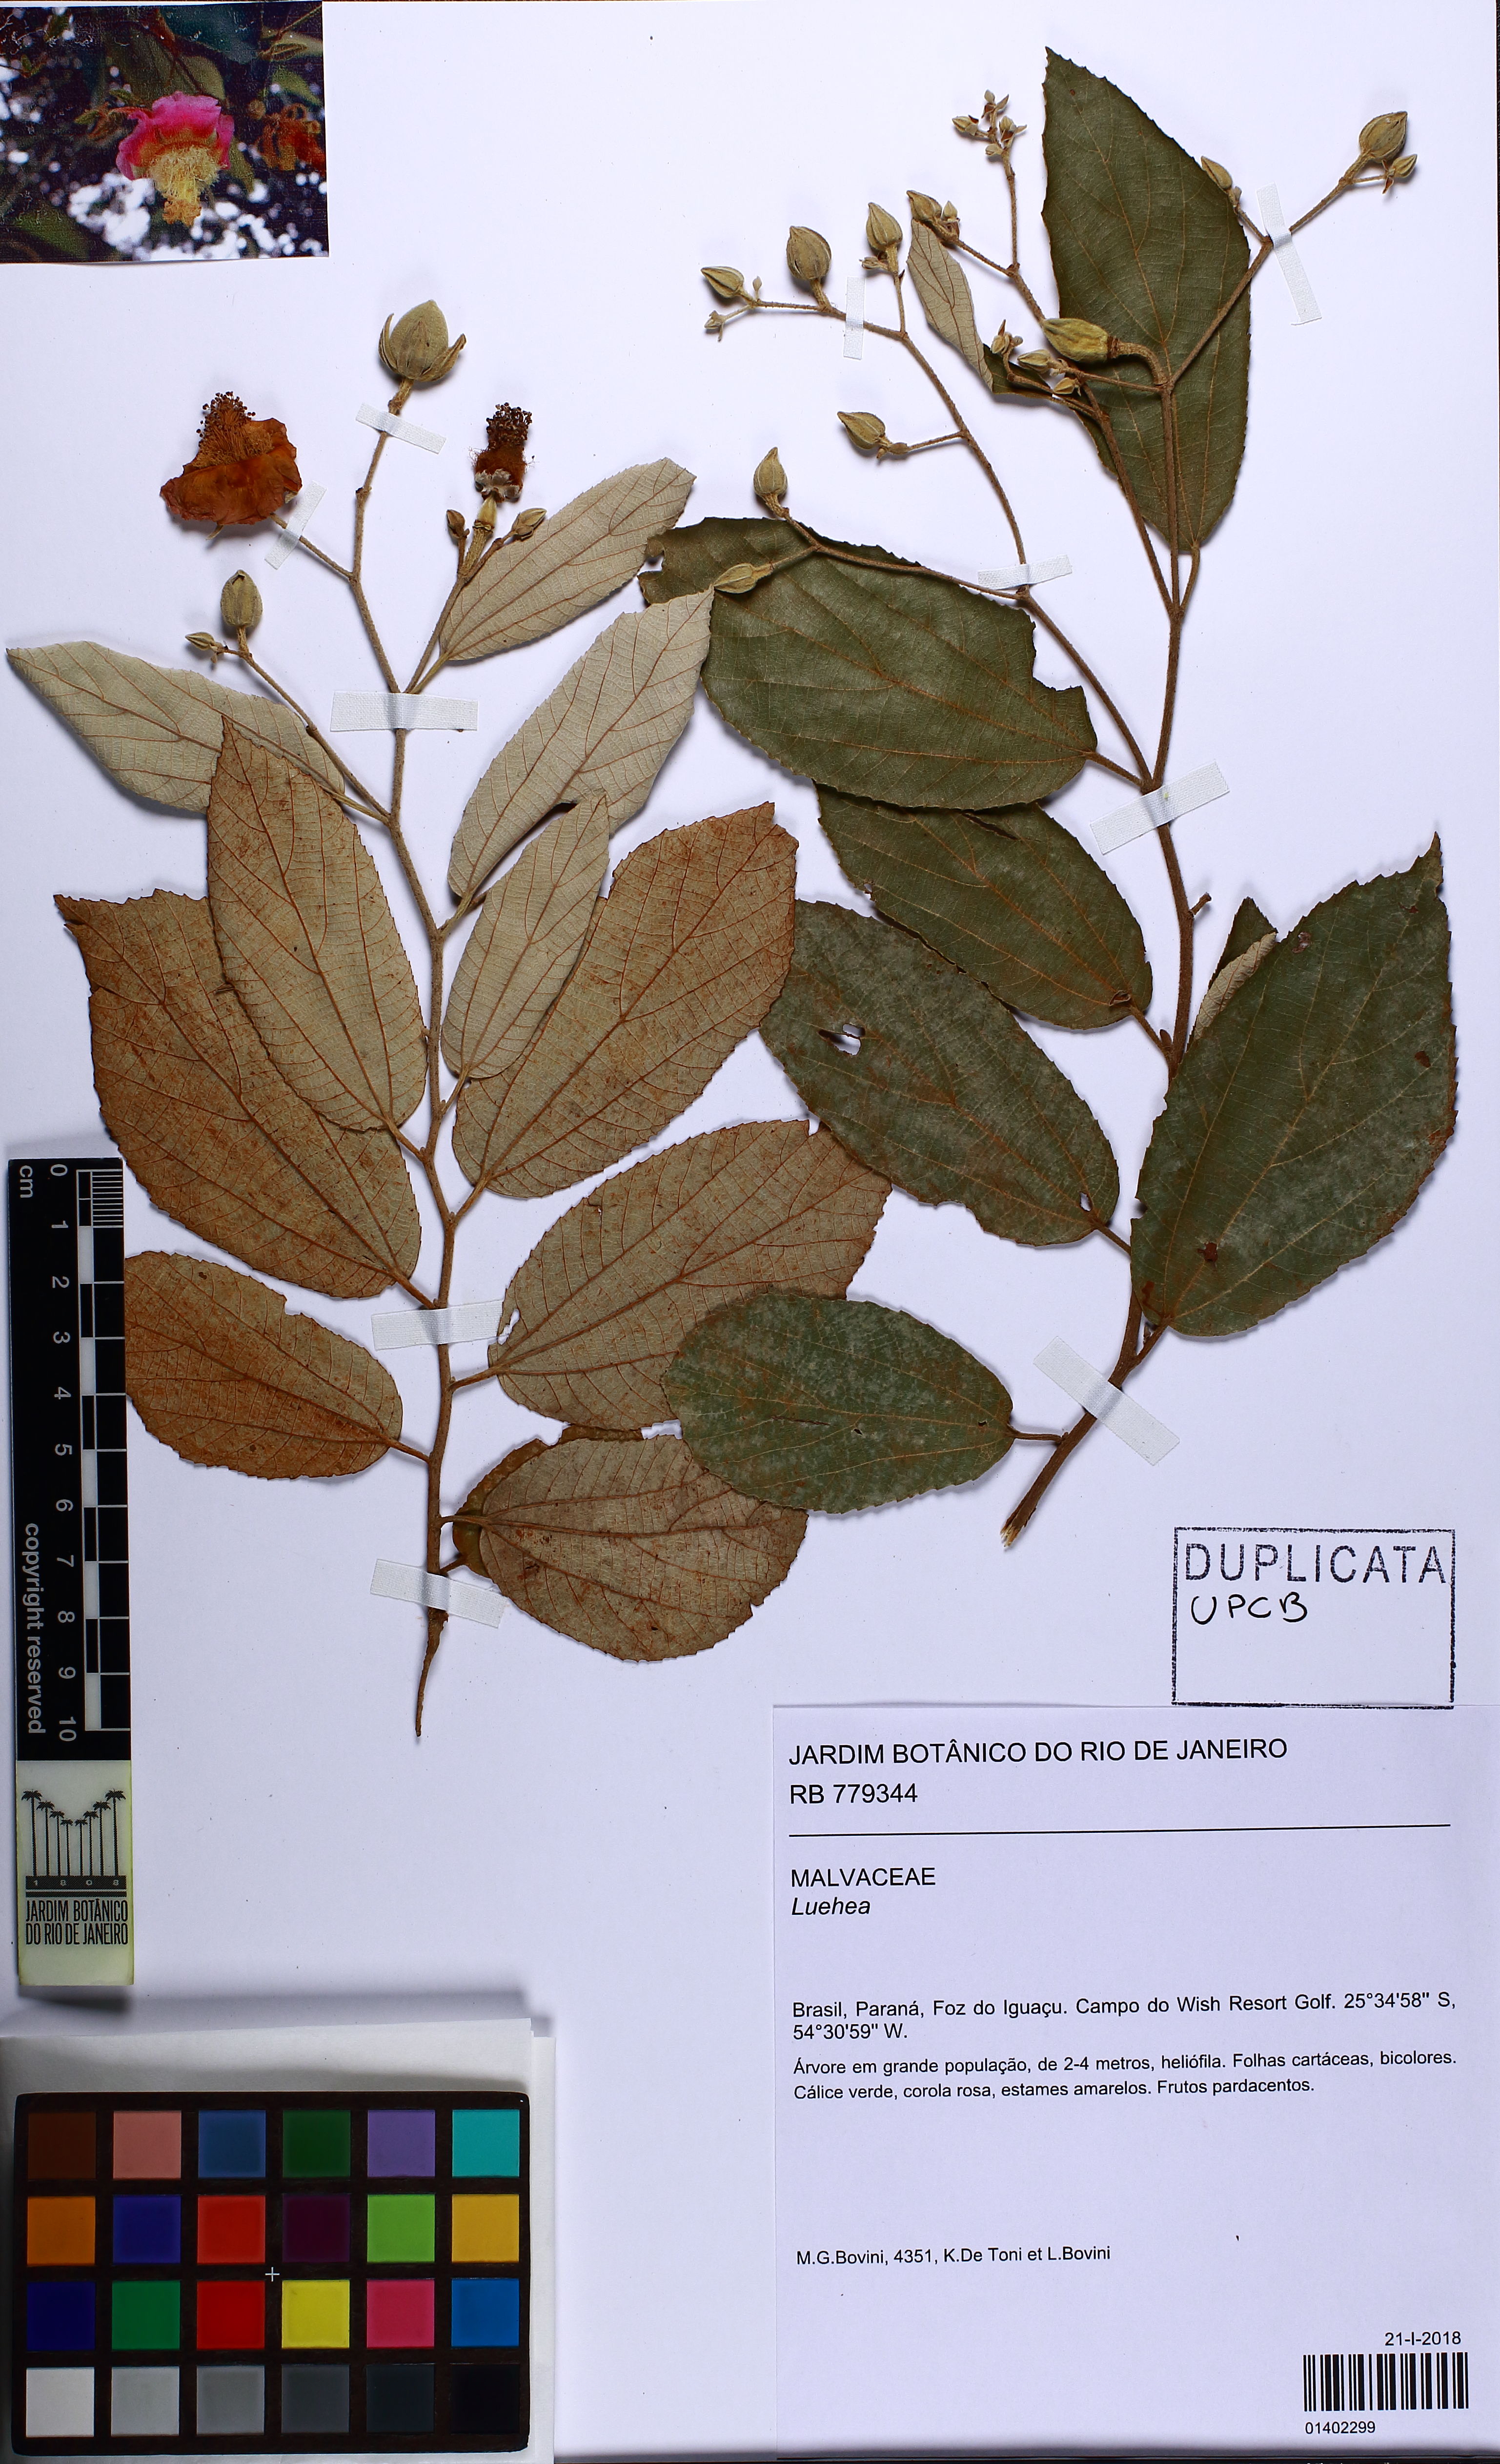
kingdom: Plantae
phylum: Tracheophyta
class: Magnoliopsida
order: Malvales
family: Malvaceae
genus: Luehea
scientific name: Luehea
